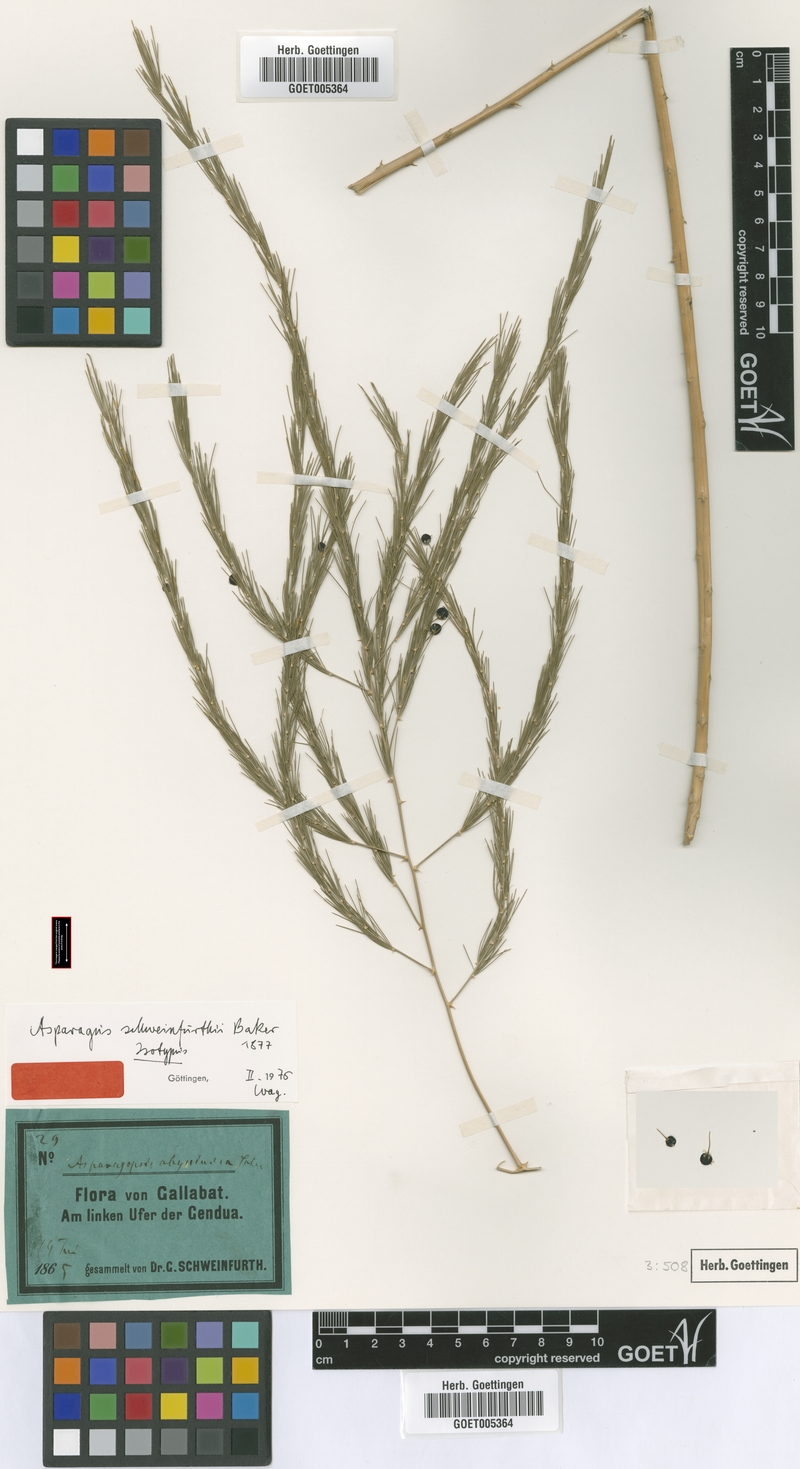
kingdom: Plantae
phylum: Tracheophyta
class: Liliopsida
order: Asparagales
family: Asparagaceae
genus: Asparagus
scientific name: Asparagus flagellaris
